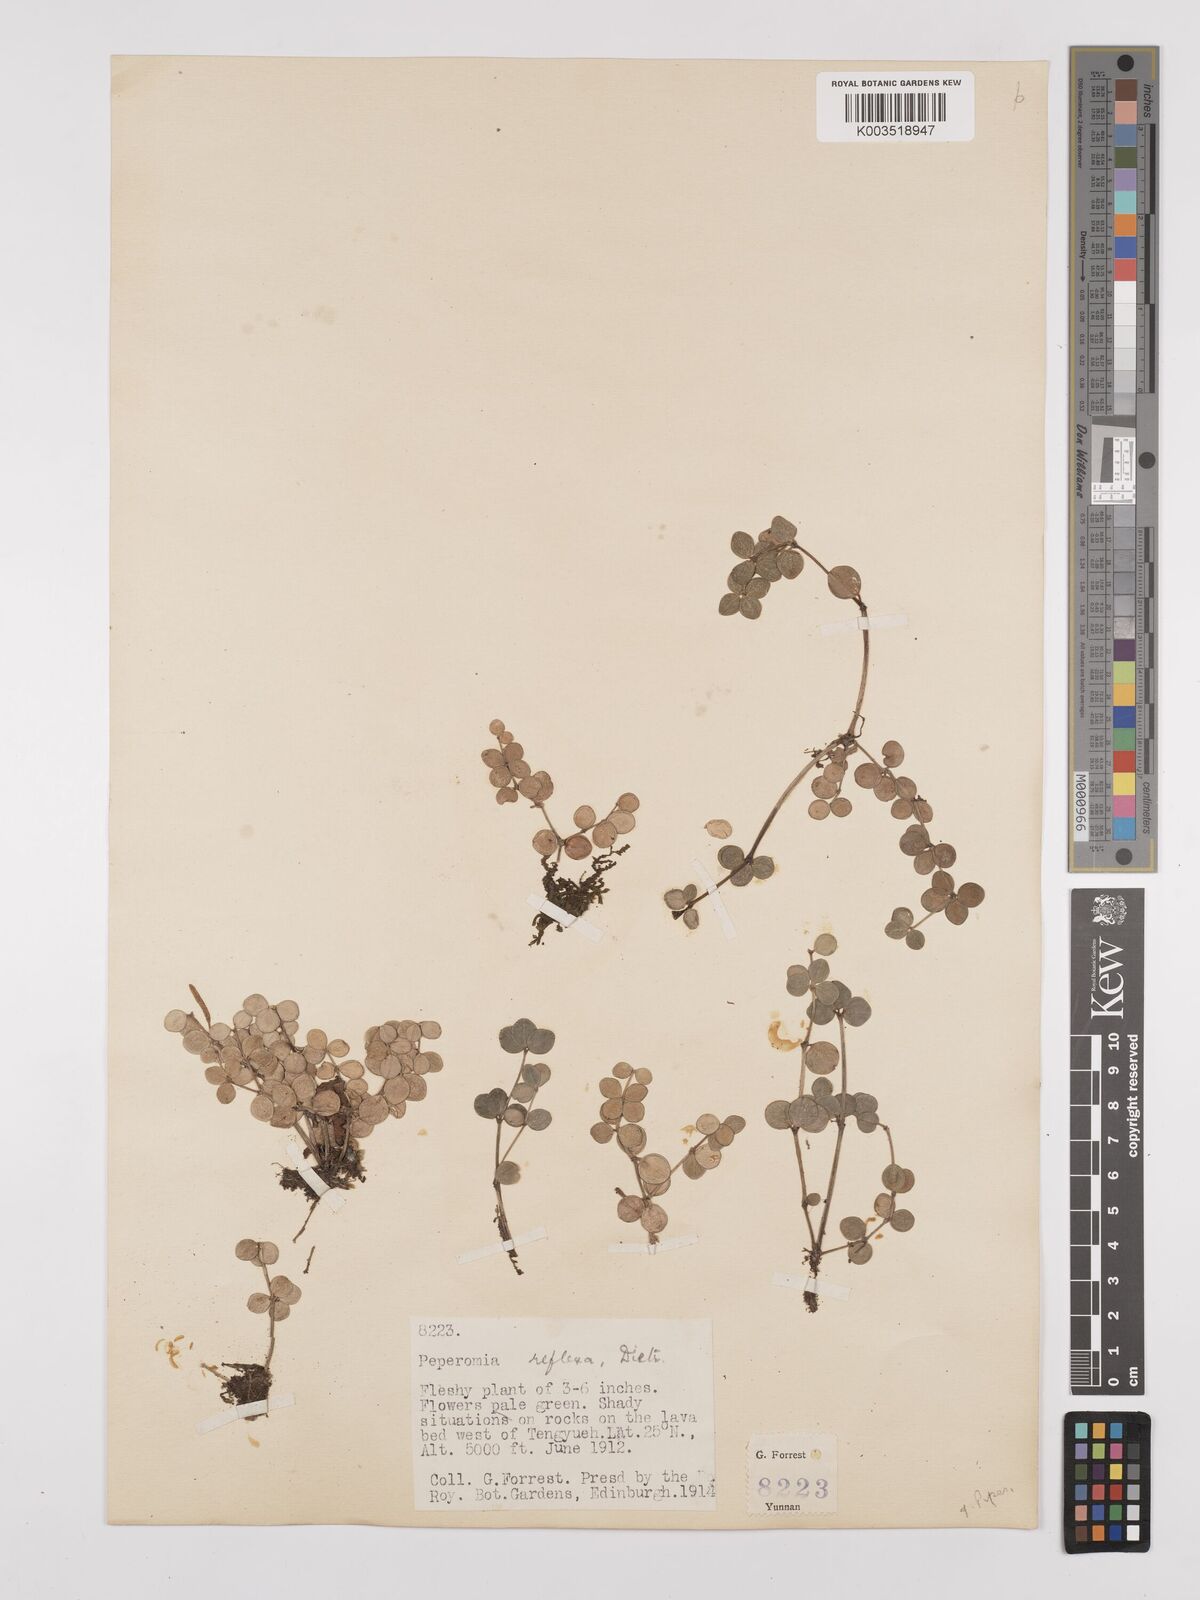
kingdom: Plantae
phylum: Tracheophyta
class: Magnoliopsida
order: Piperales
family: Piperaceae
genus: Peperomia
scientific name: Peperomia tetraphylla
